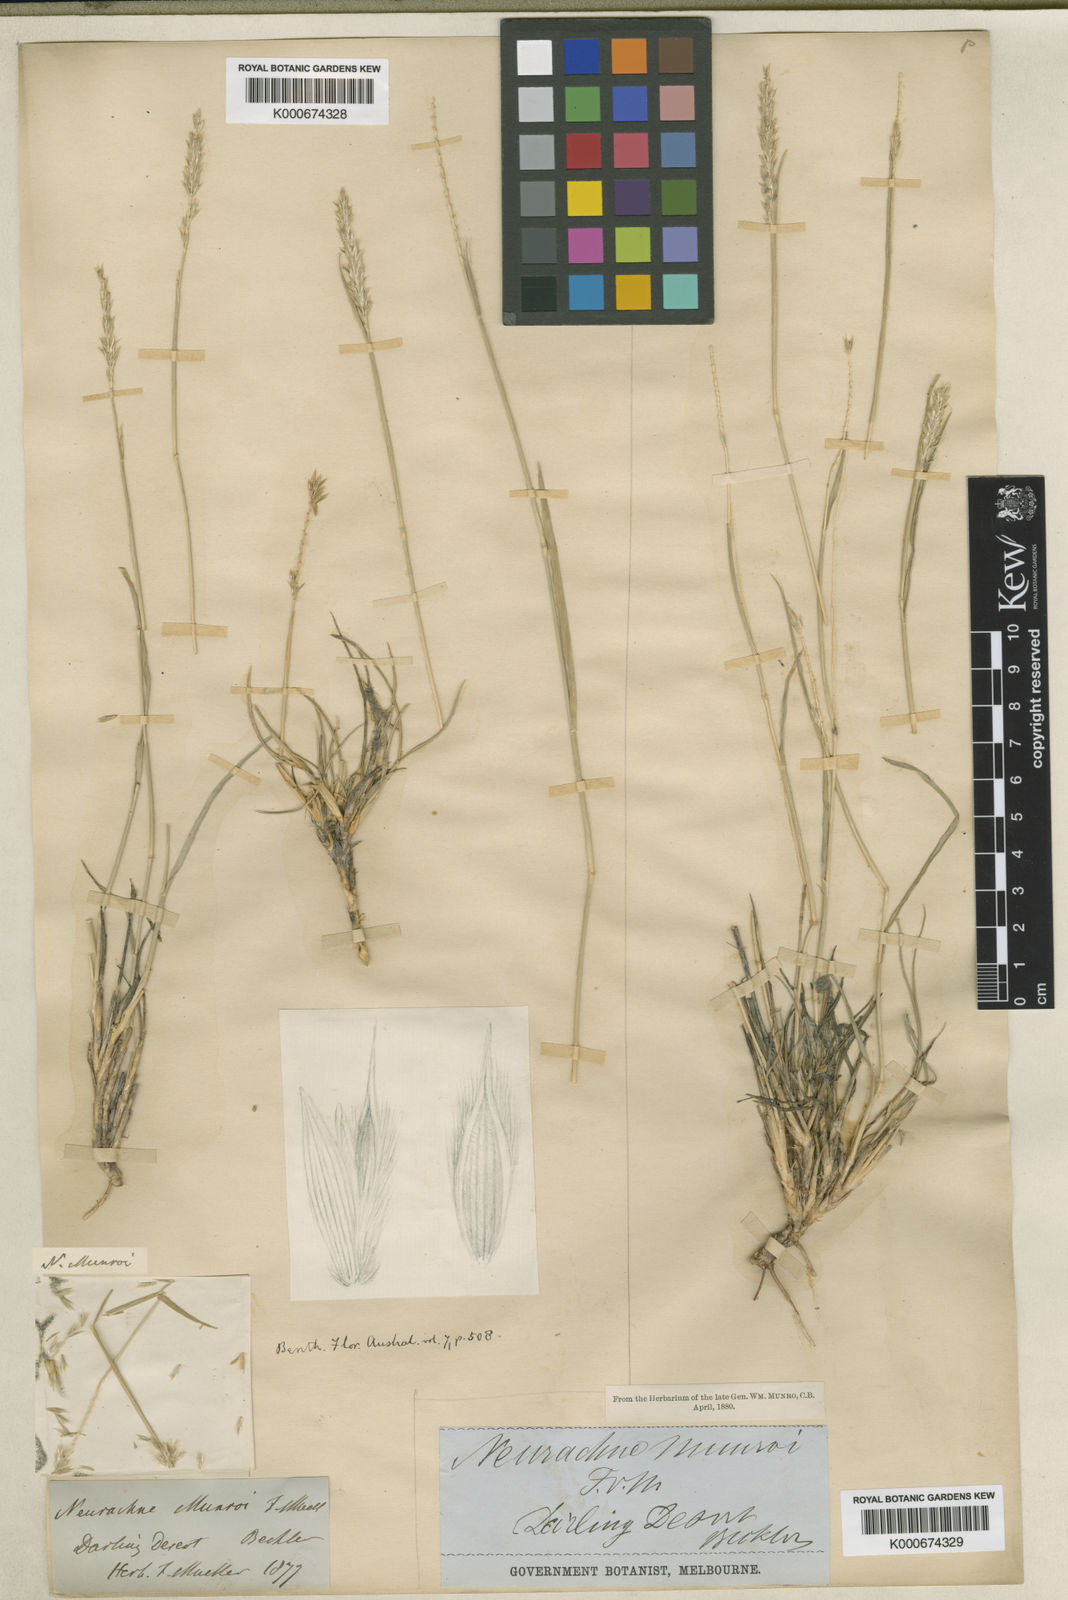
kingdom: Plantae
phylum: Tracheophyta
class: Liliopsida
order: Poales
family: Poaceae
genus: Neurachne
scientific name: Neurachne munroi
